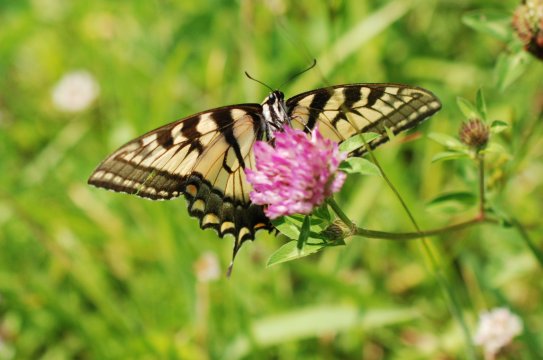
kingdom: Animalia
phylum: Arthropoda
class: Insecta
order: Lepidoptera
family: Papilionidae
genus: Pterourus
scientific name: Pterourus canadensis
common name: Canadian Tiger Swallowtail
